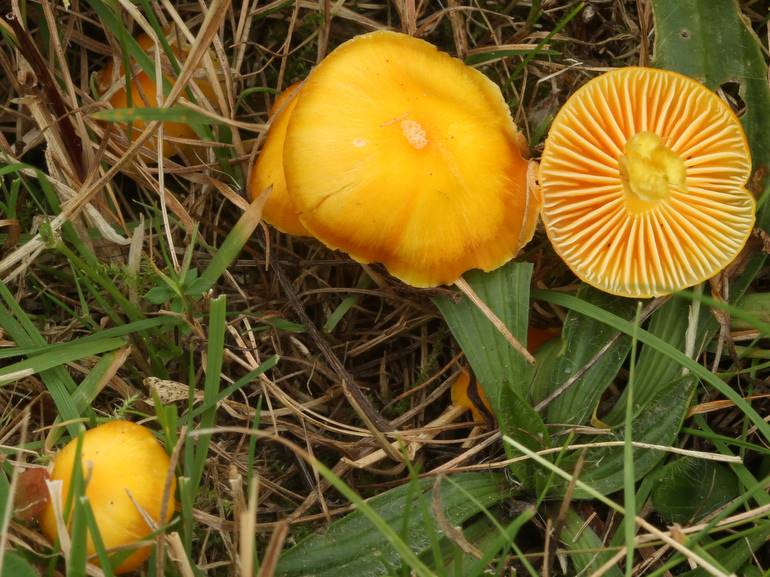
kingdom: Fungi
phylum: Basidiomycota
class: Agaricomycetes
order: Agaricales
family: Hygrophoraceae
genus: Hygrocybe
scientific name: Hygrocybe ceracea
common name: voksgul vokshat
